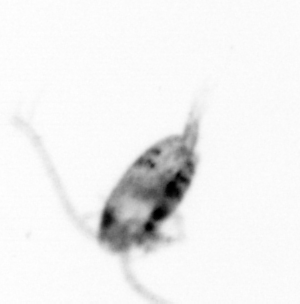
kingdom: Animalia
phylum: Arthropoda
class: Copepoda
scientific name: Copepoda
